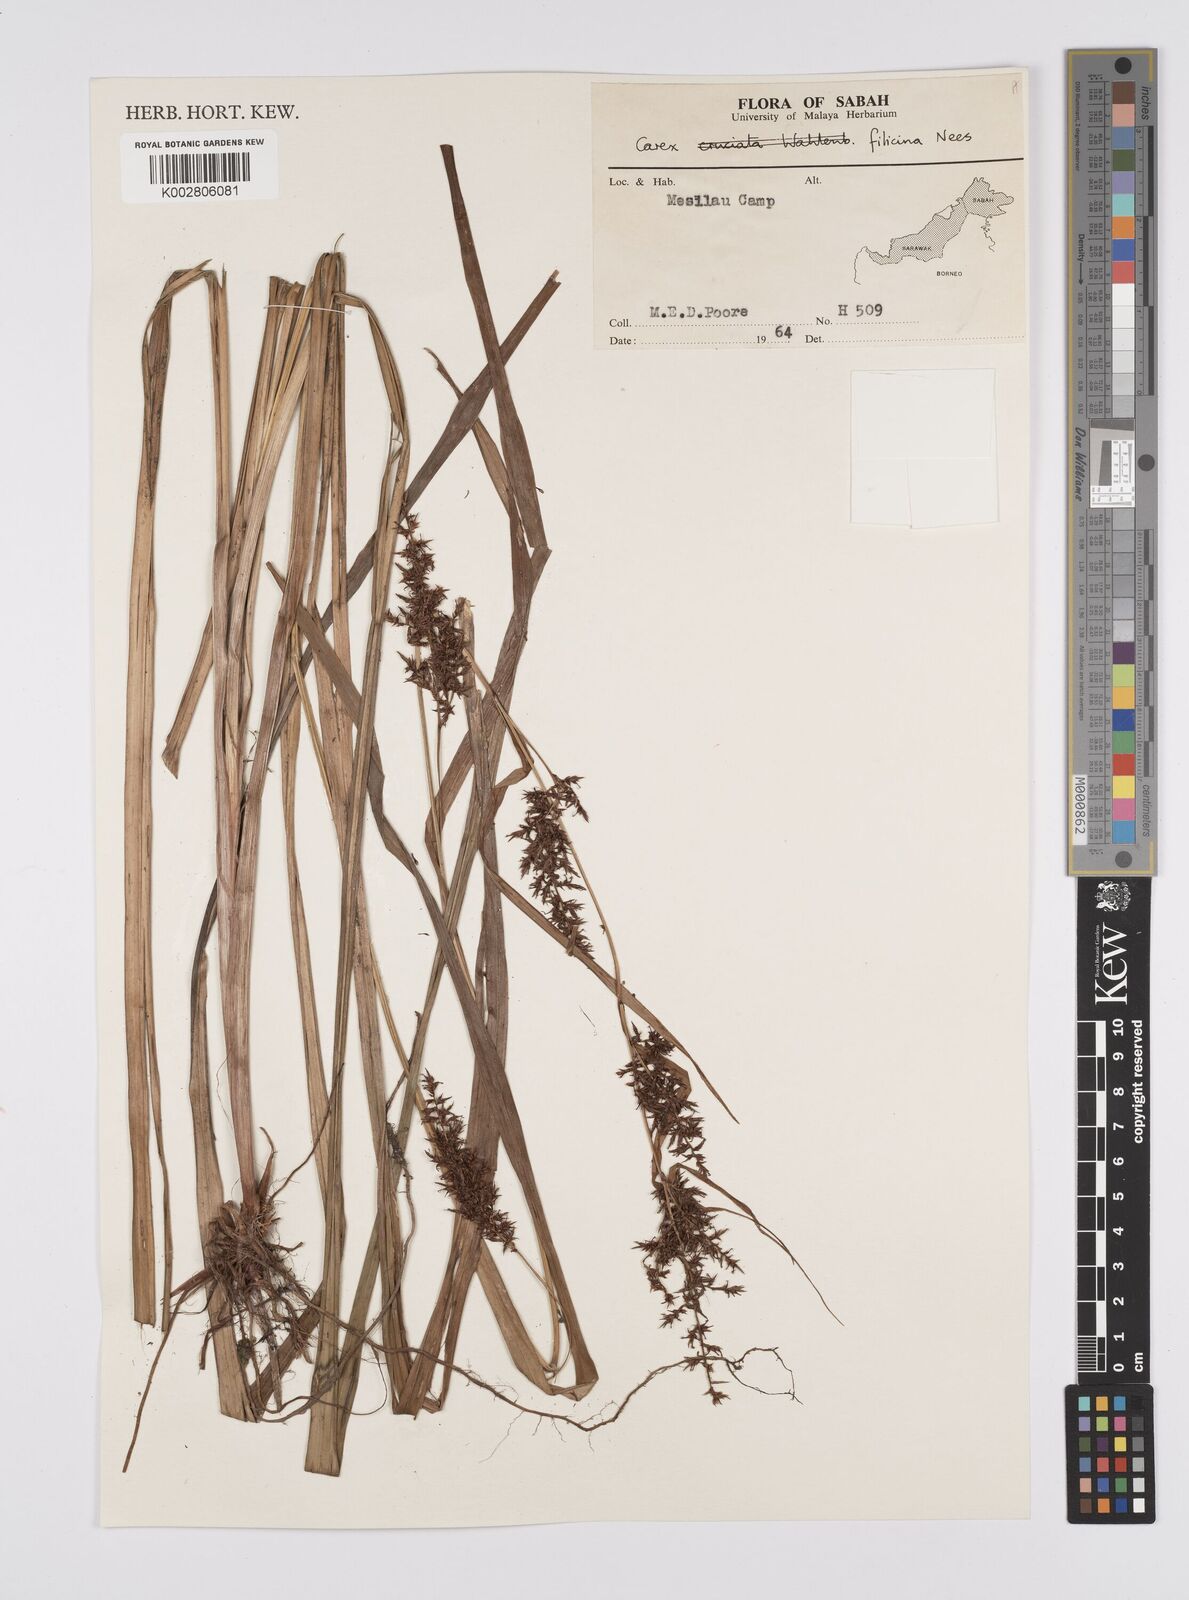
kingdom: Plantae
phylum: Tracheophyta
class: Liliopsida
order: Poales
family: Cyperaceae
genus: Carex
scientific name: Carex filicina
